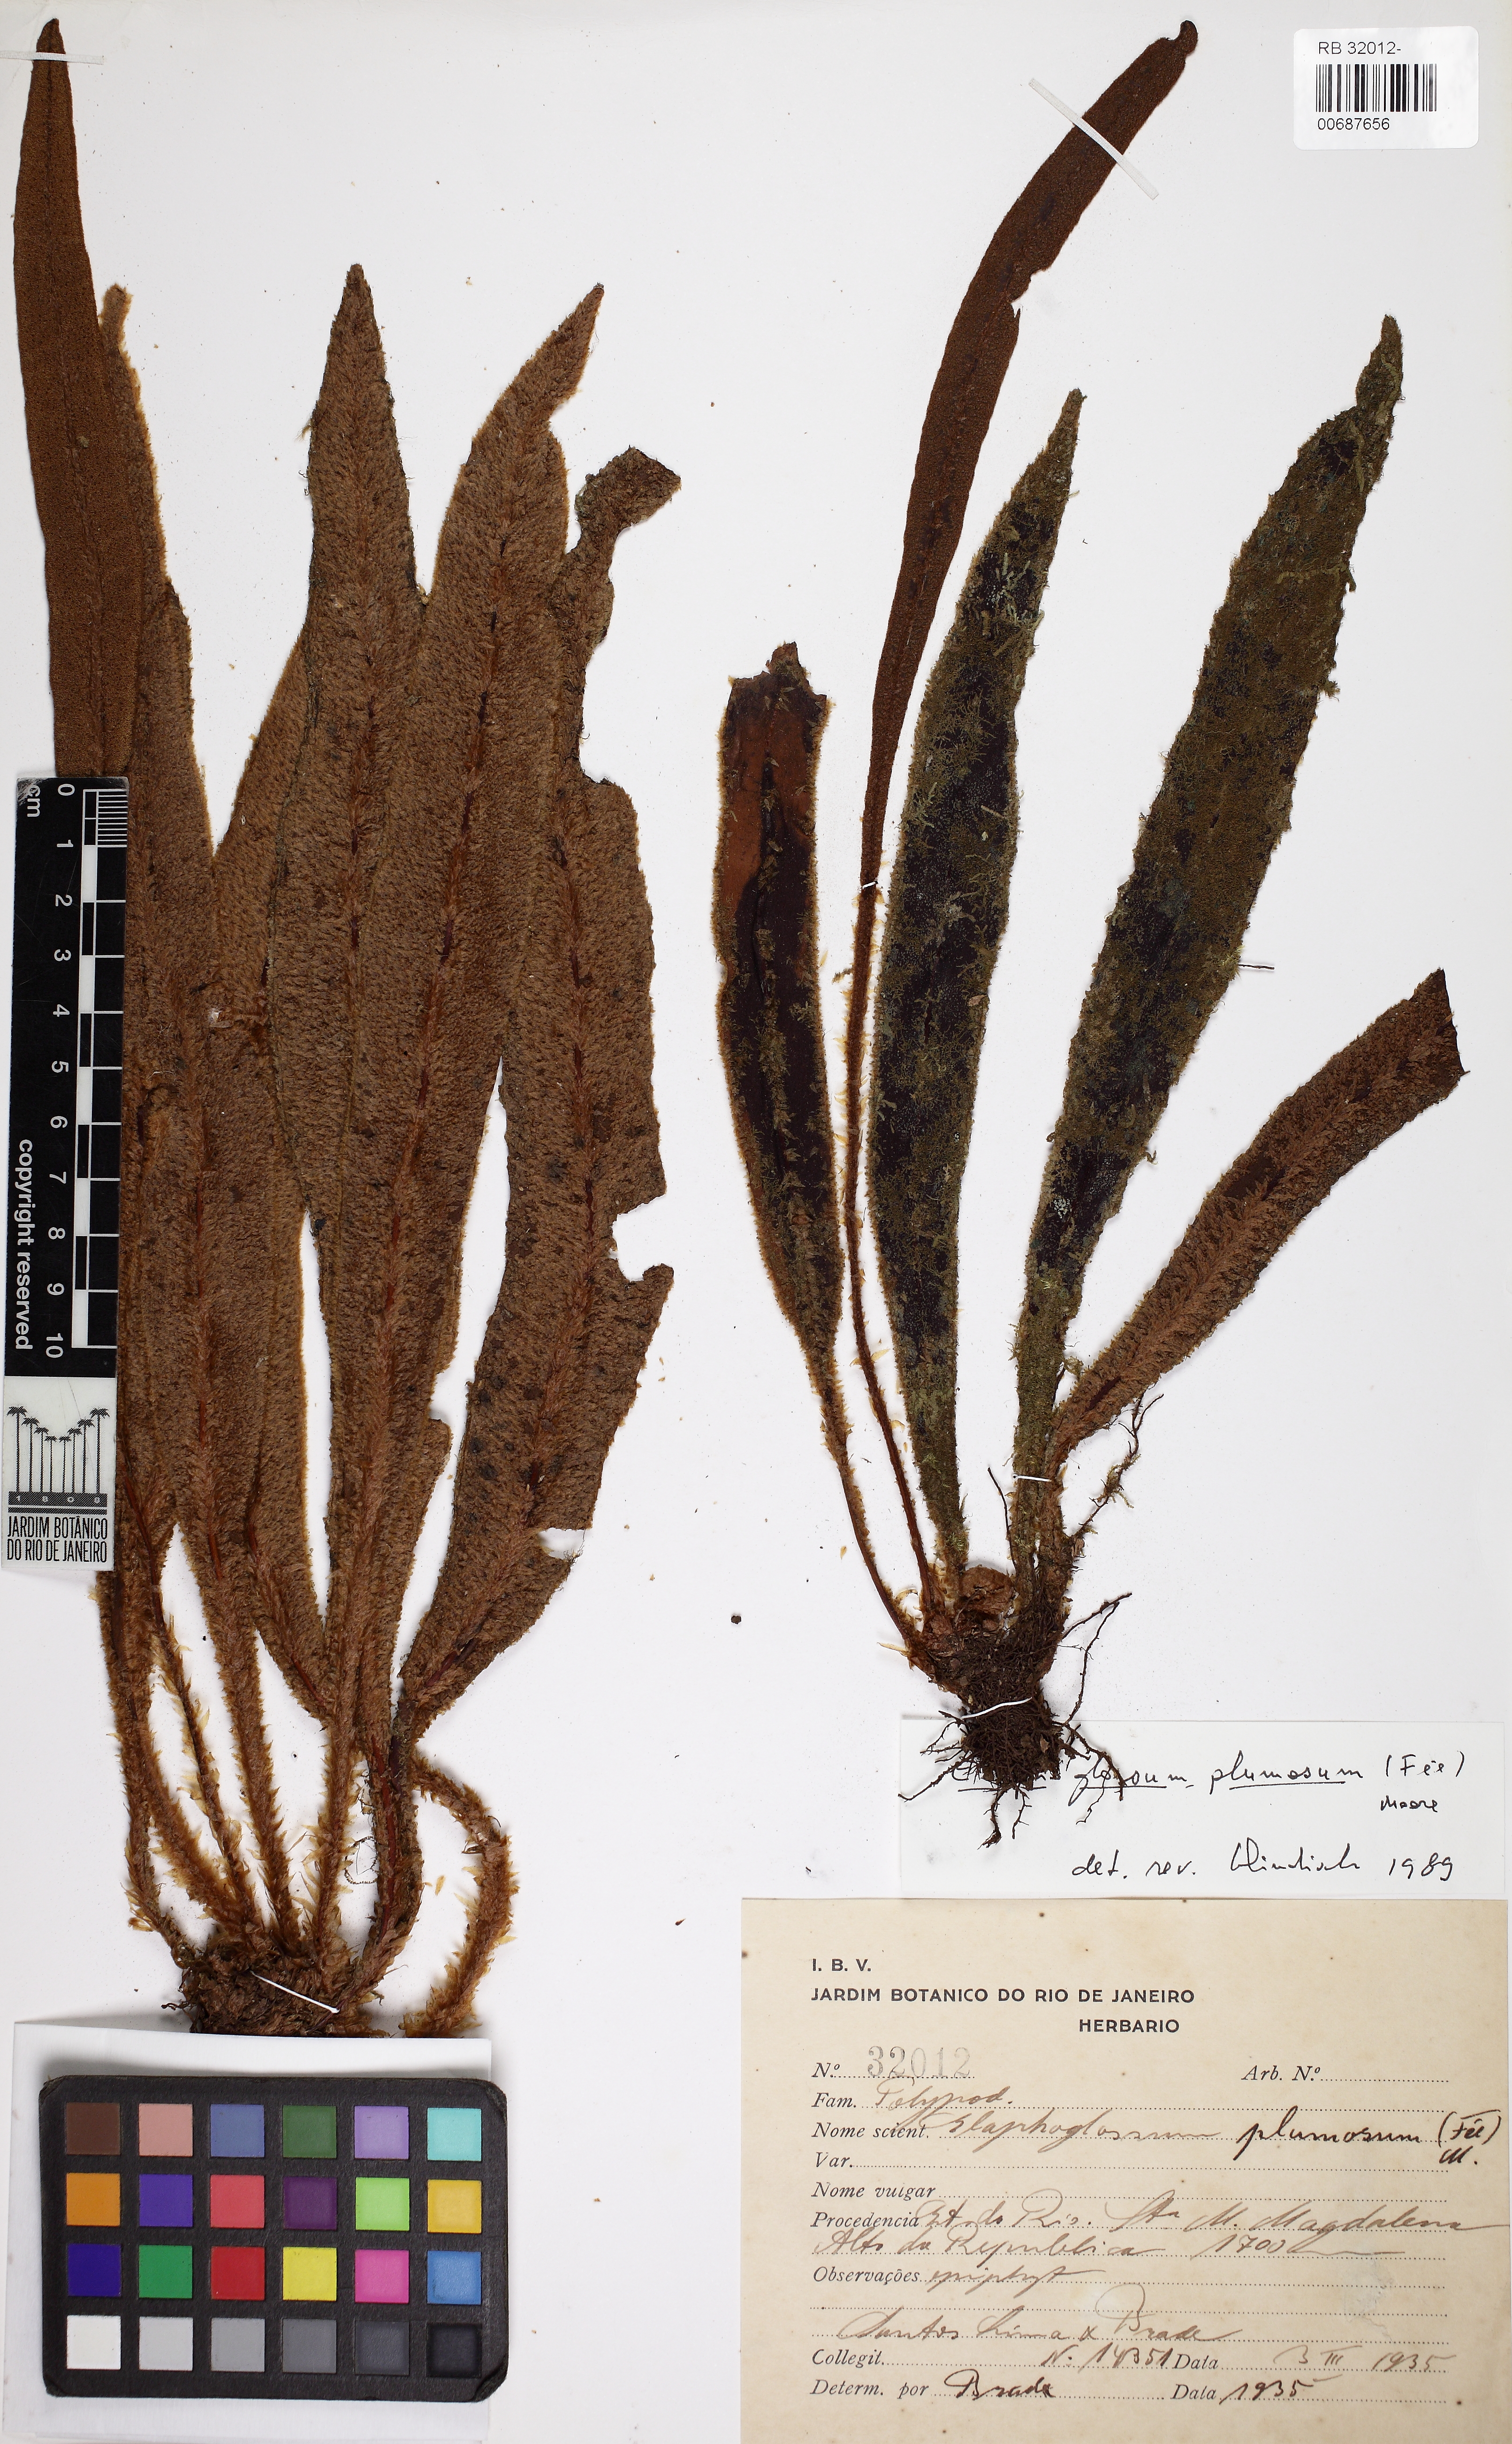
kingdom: Plantae
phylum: Tracheophyta
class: Polypodiopsida
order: Polypodiales
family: Dryopteridaceae
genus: Elaphoglossum
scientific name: Elaphoglossum plumosum
